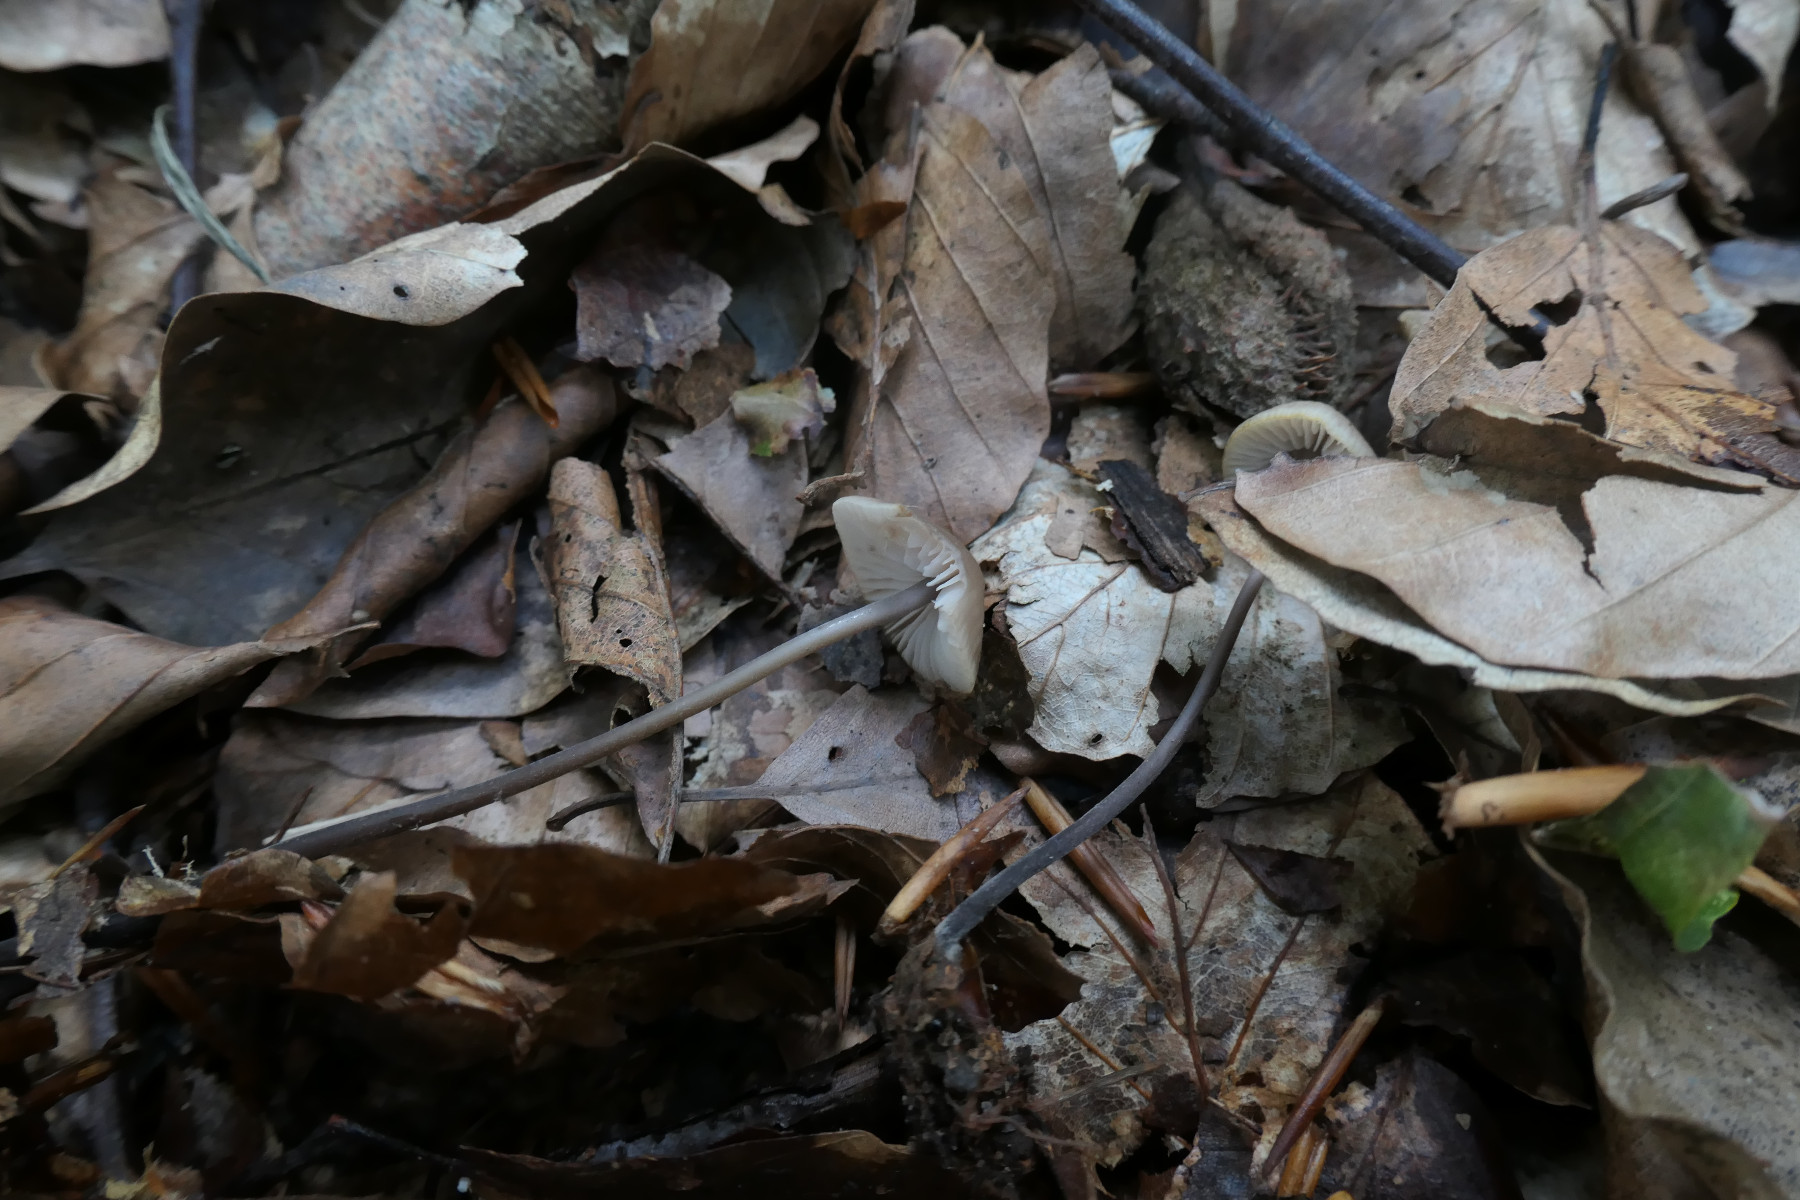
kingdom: Fungi
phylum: Basidiomycota
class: Agaricomycetes
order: Agaricales
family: Omphalotaceae
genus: Mycetinis
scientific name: Mycetinis alliaceus
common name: stor løghat
